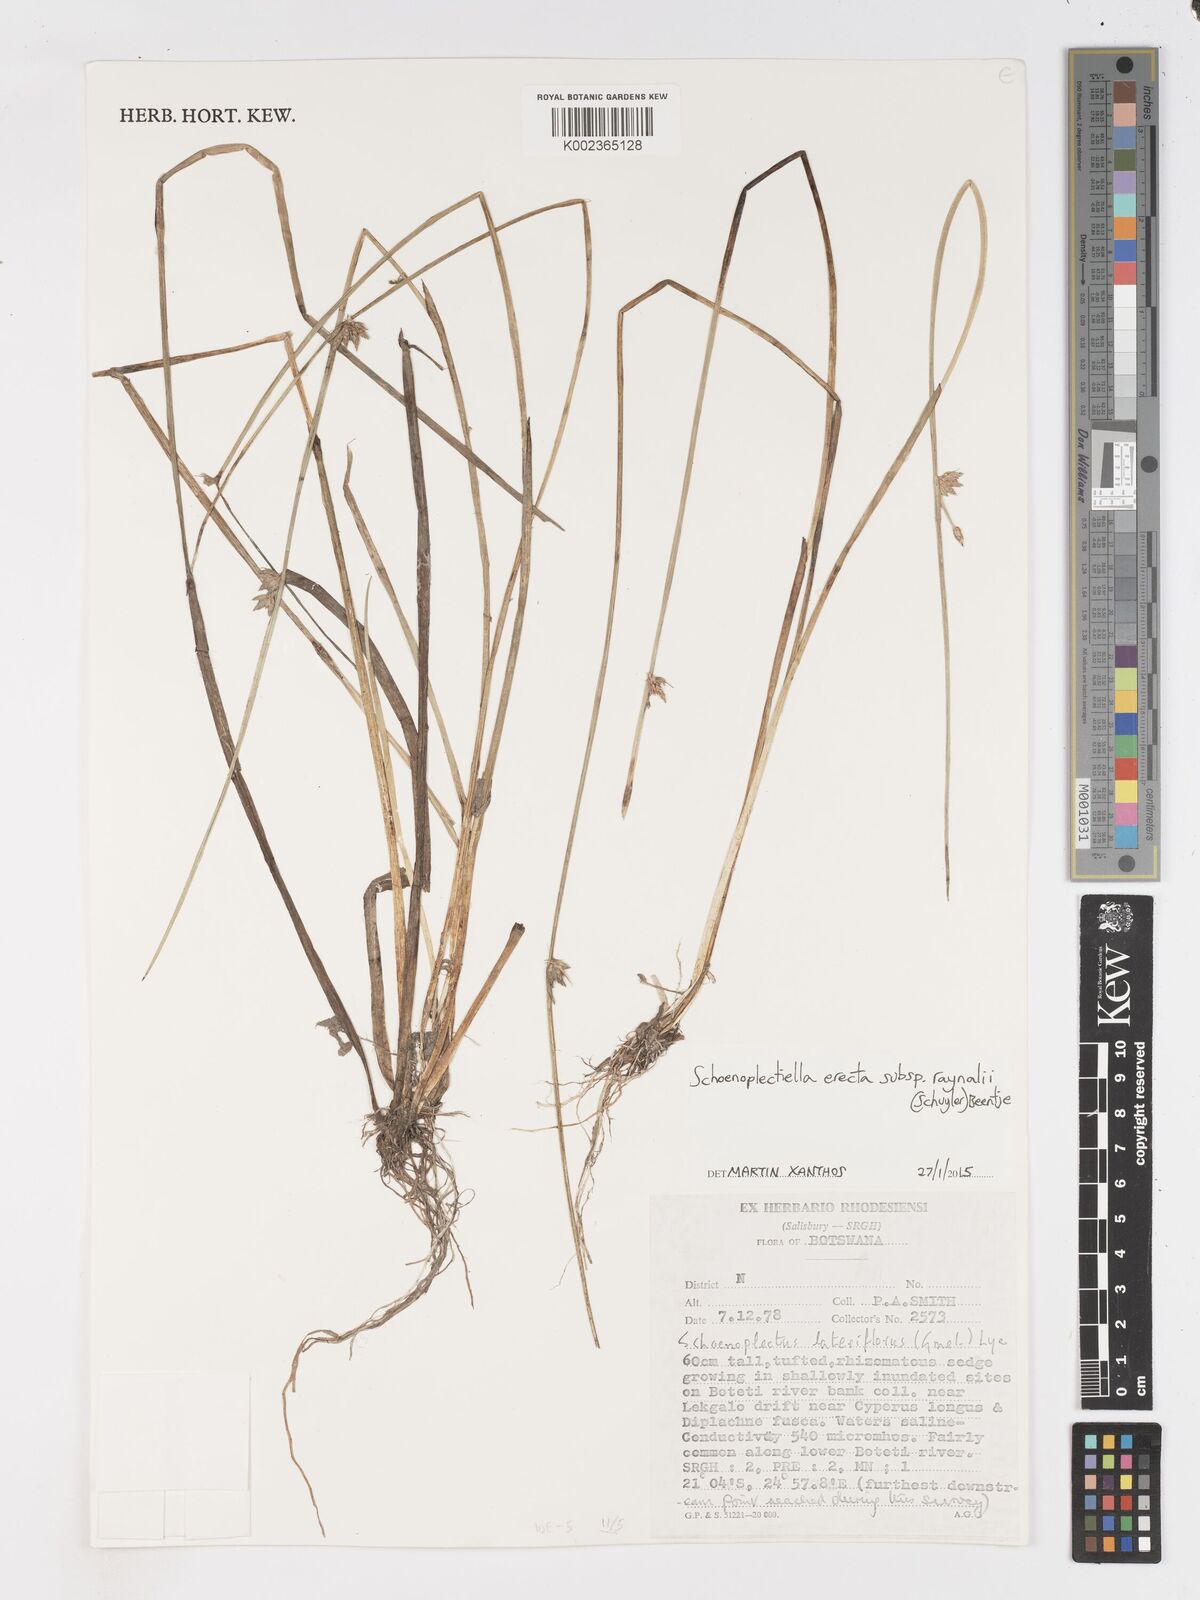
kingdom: Plantae
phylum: Tracheophyta
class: Liliopsida
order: Poales
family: Cyperaceae
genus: Schoenoplectiella
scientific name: Schoenoplectiella erecta
